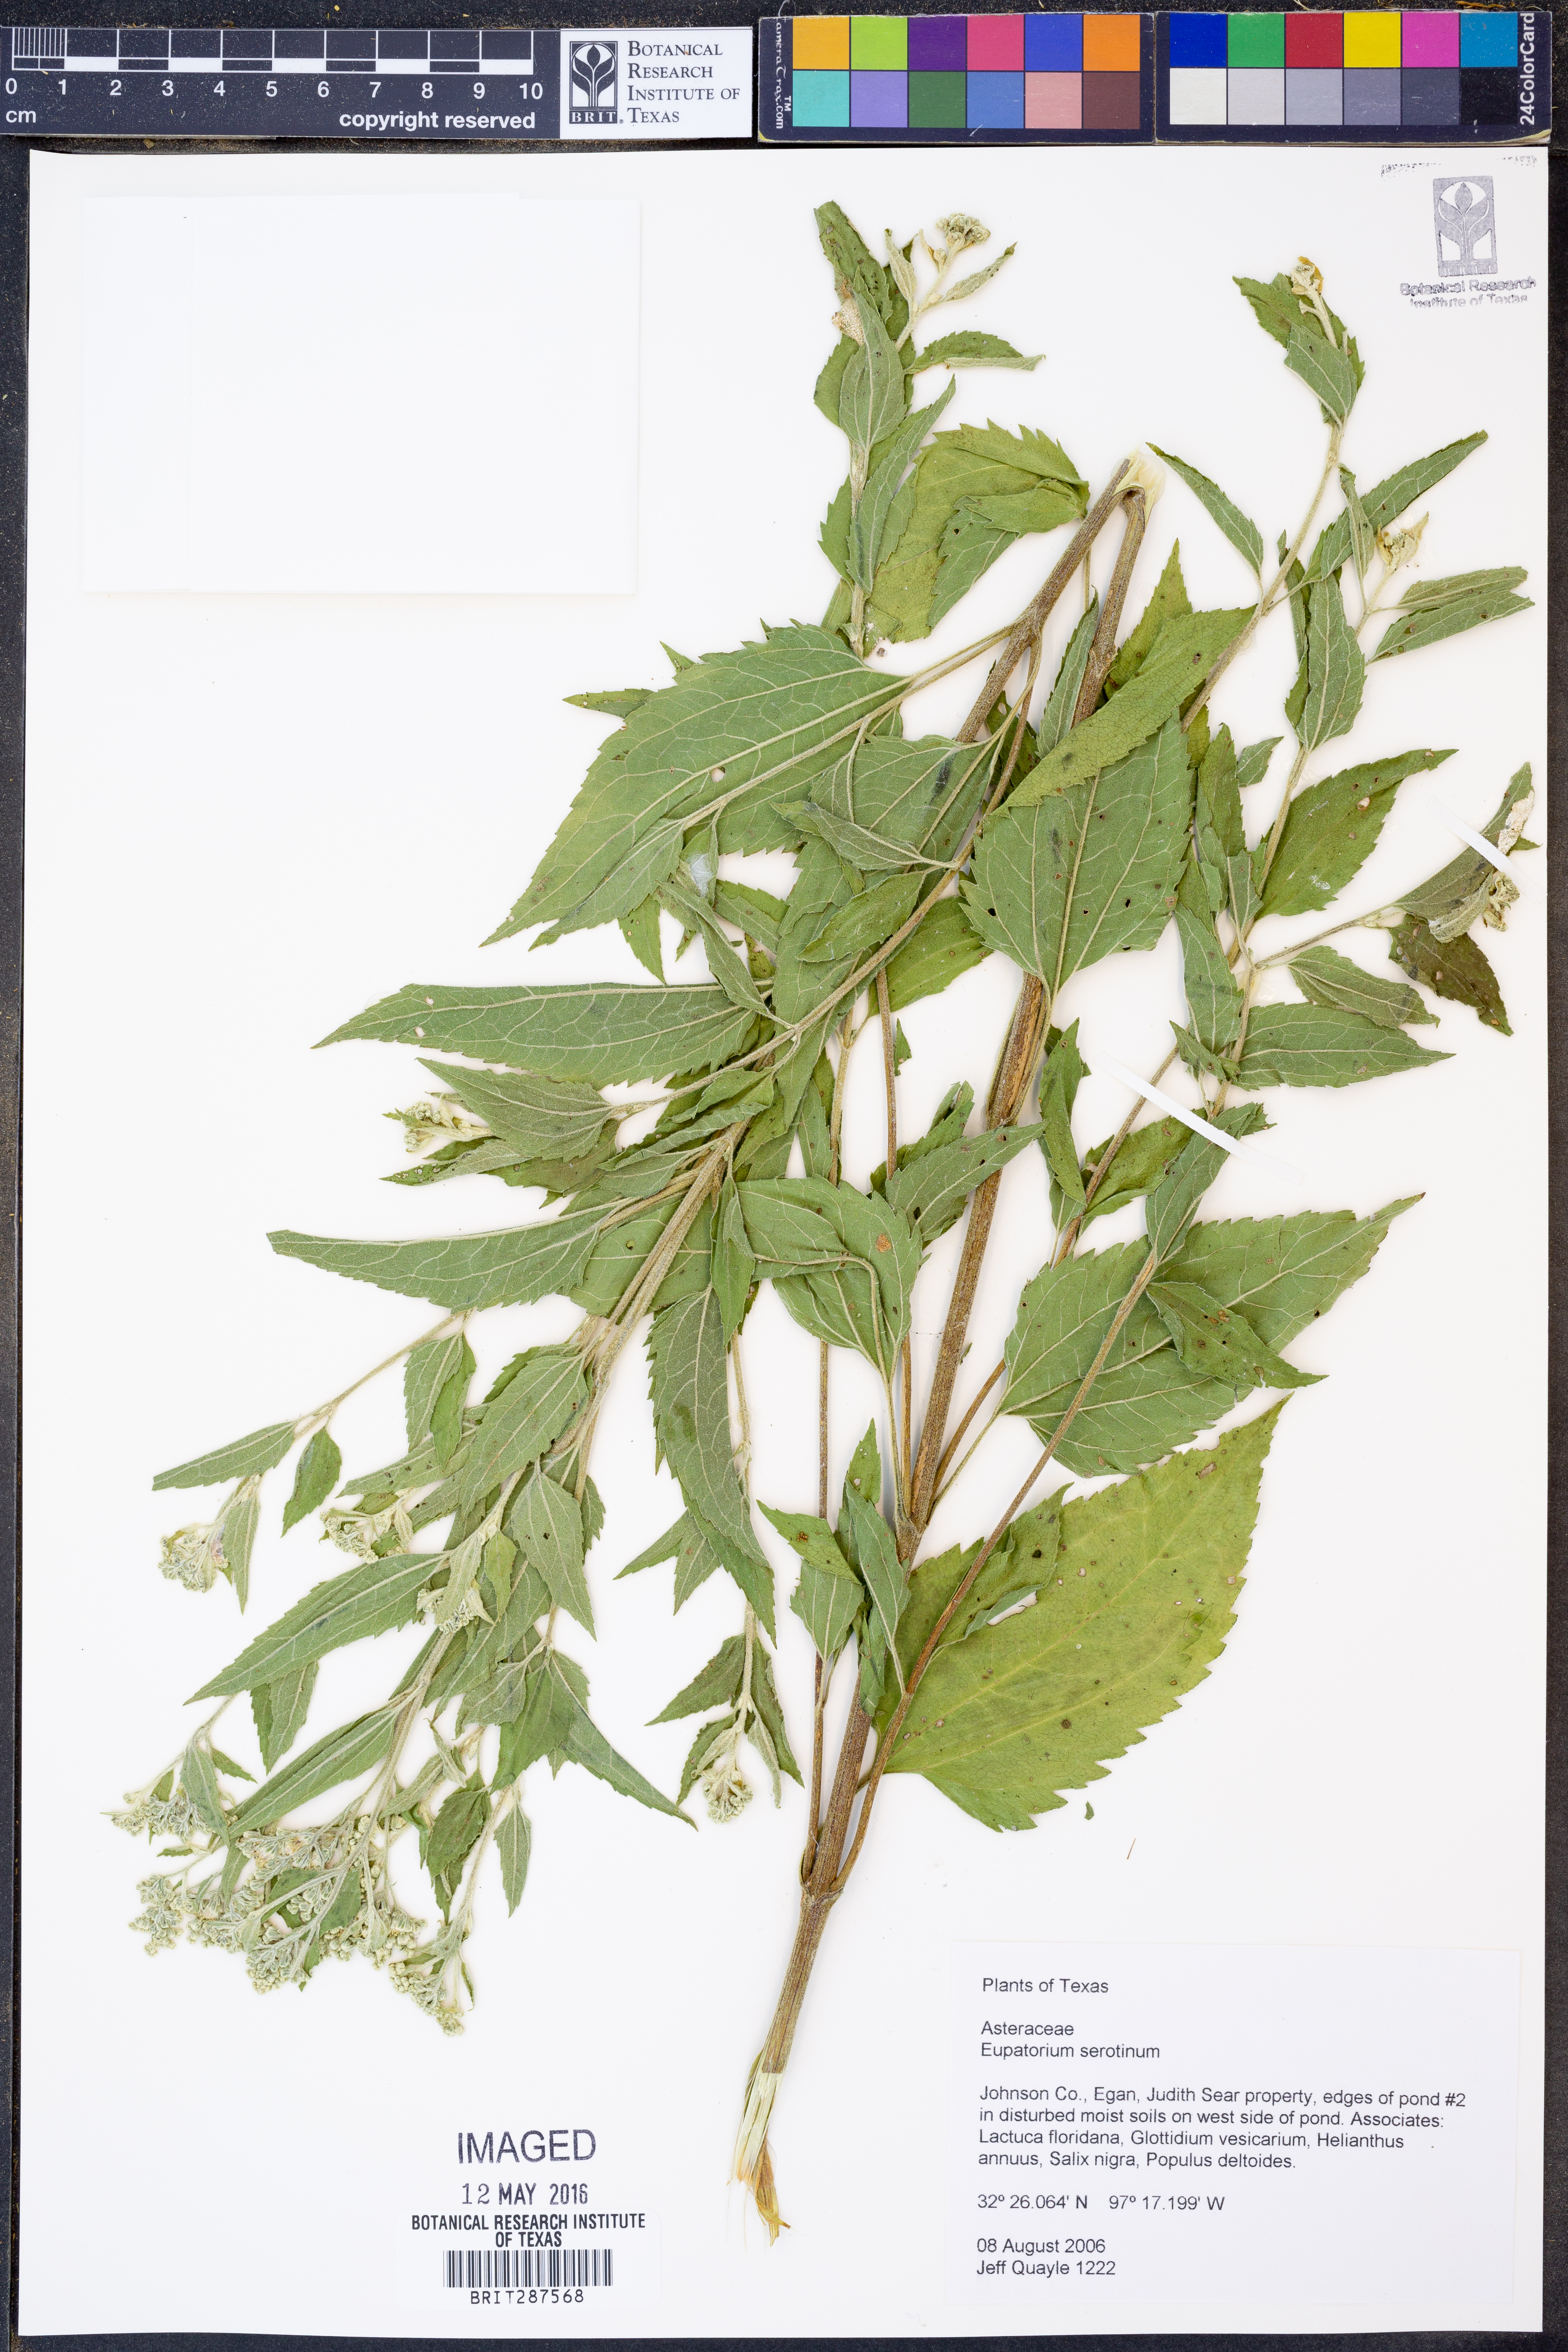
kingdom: Plantae
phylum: Tracheophyta
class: Magnoliopsida
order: Asterales
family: Asteraceae
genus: Eupatorium
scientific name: Eupatorium serotinum
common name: Late boneset
